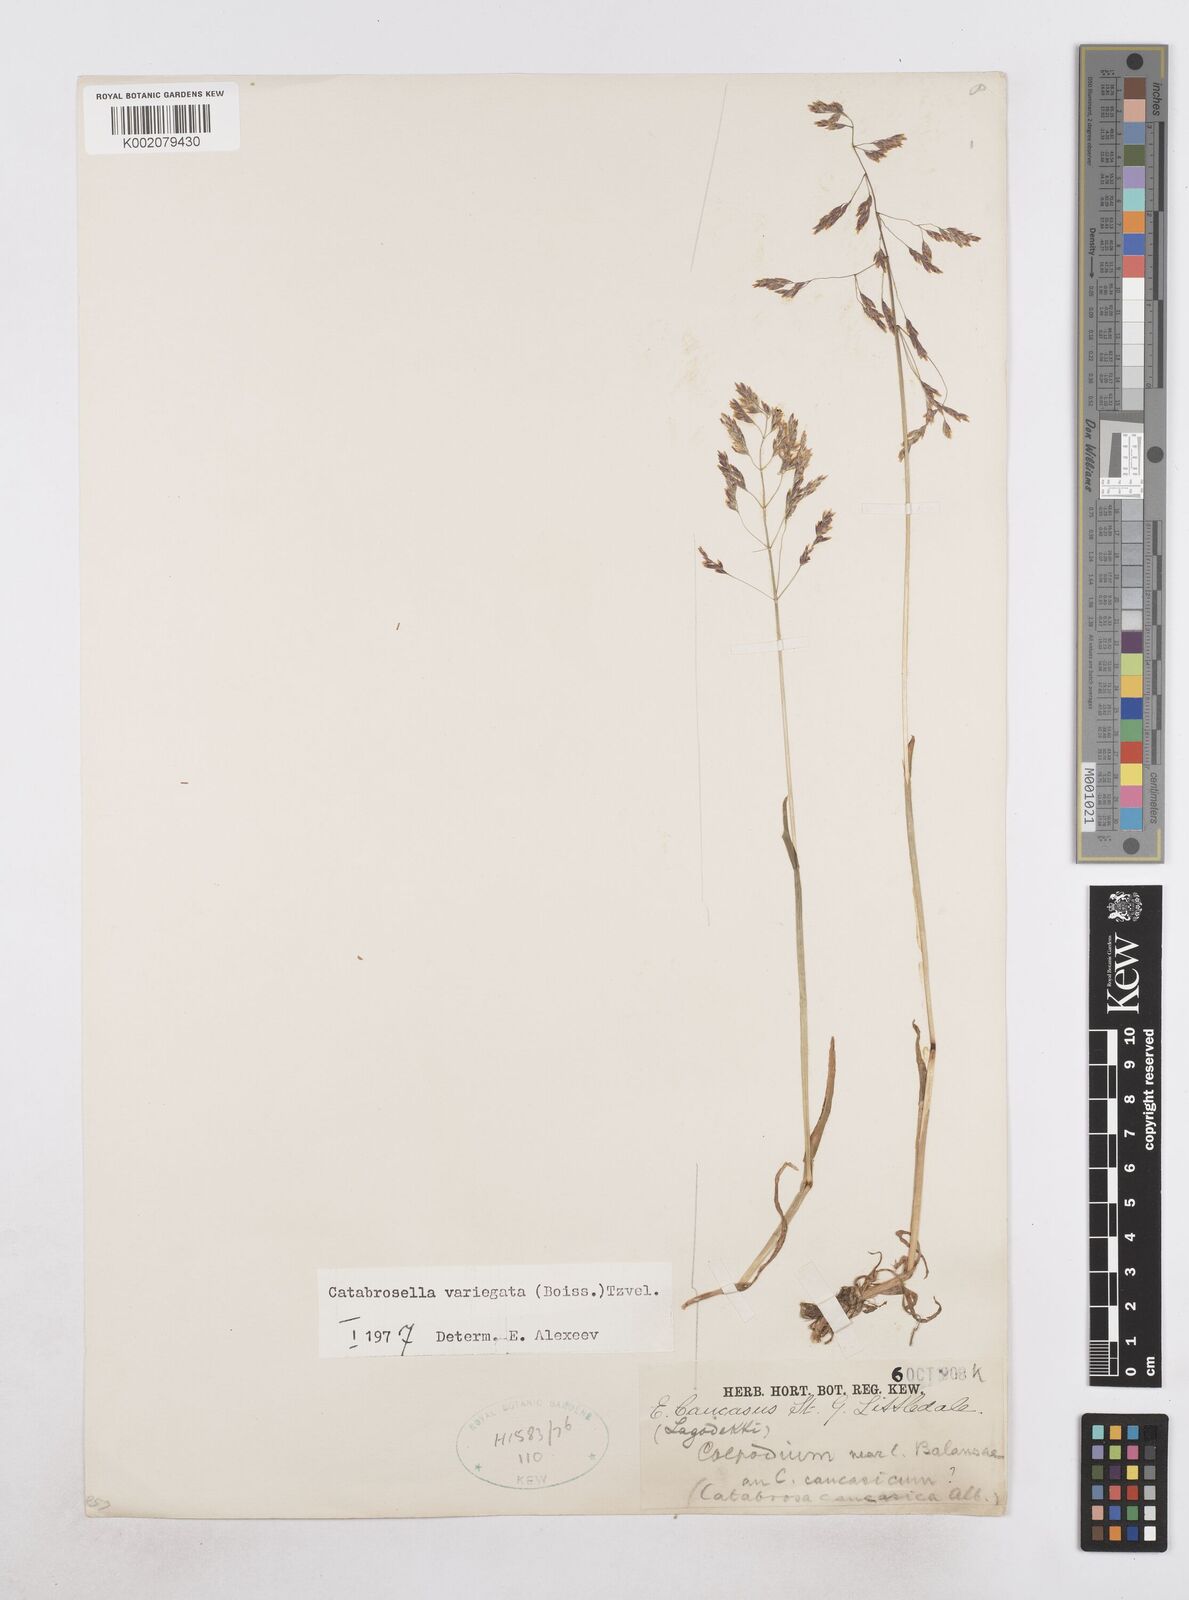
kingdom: Plantae
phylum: Tracheophyta
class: Liliopsida
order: Poales
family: Poaceae
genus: Catabrosella
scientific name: Catabrosella variegata
